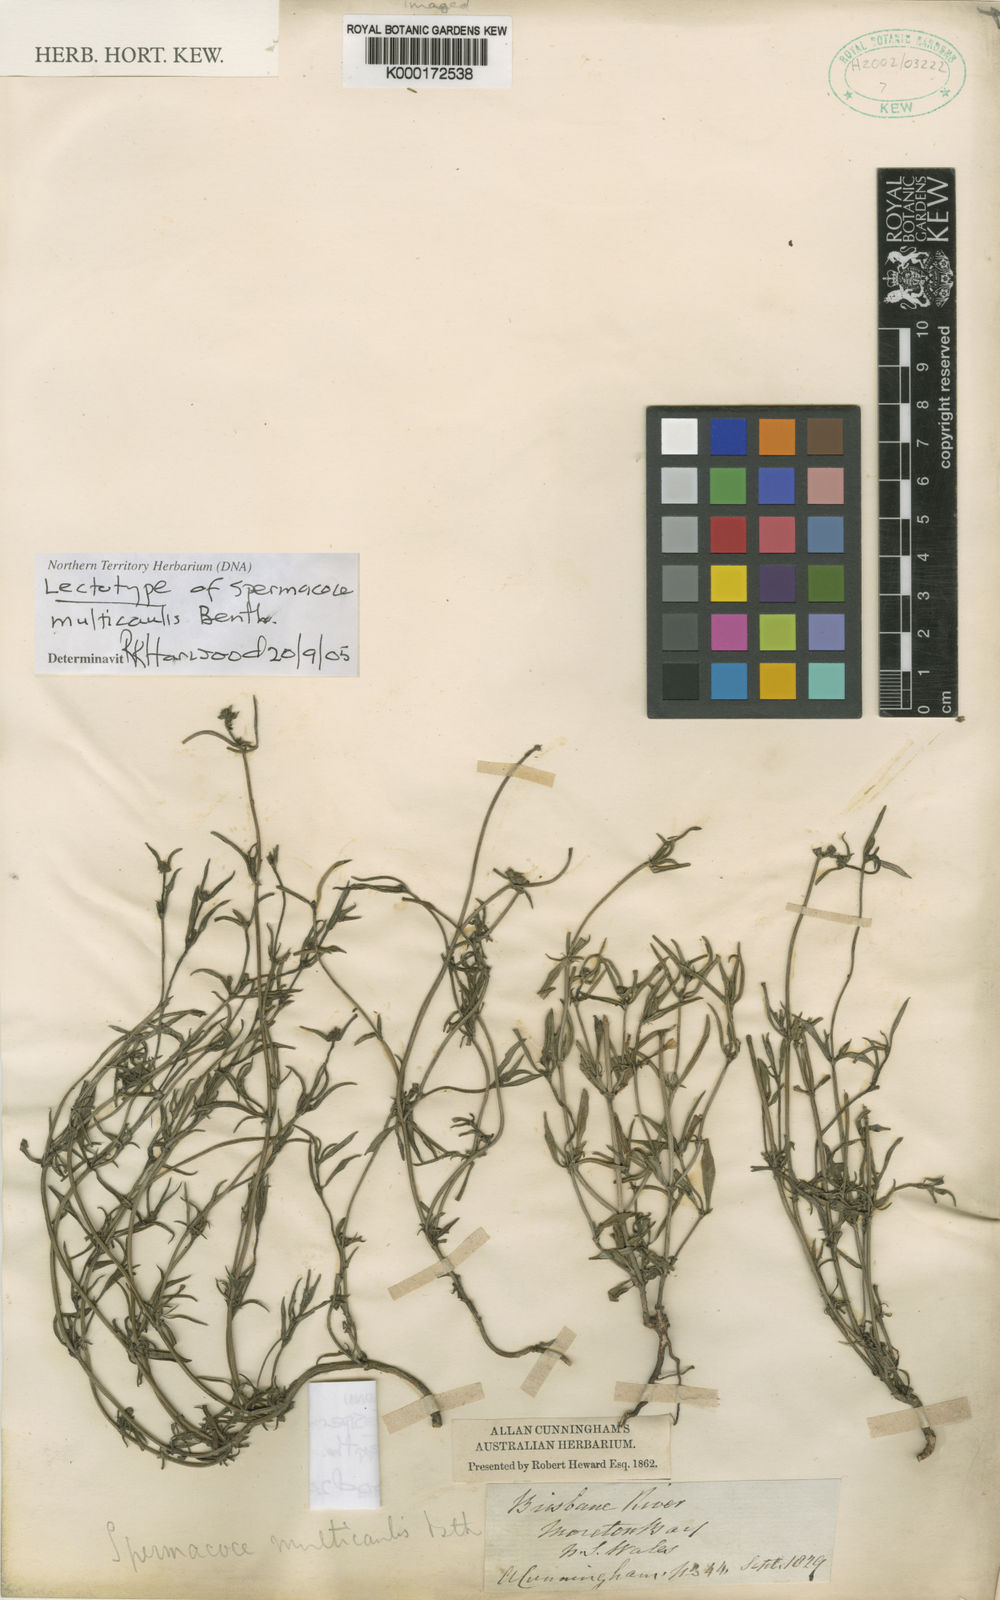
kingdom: Plantae
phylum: Tracheophyta
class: Magnoliopsida
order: Gentianales
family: Rubiaceae
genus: Spermacoce
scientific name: Spermacoce multicaulis
